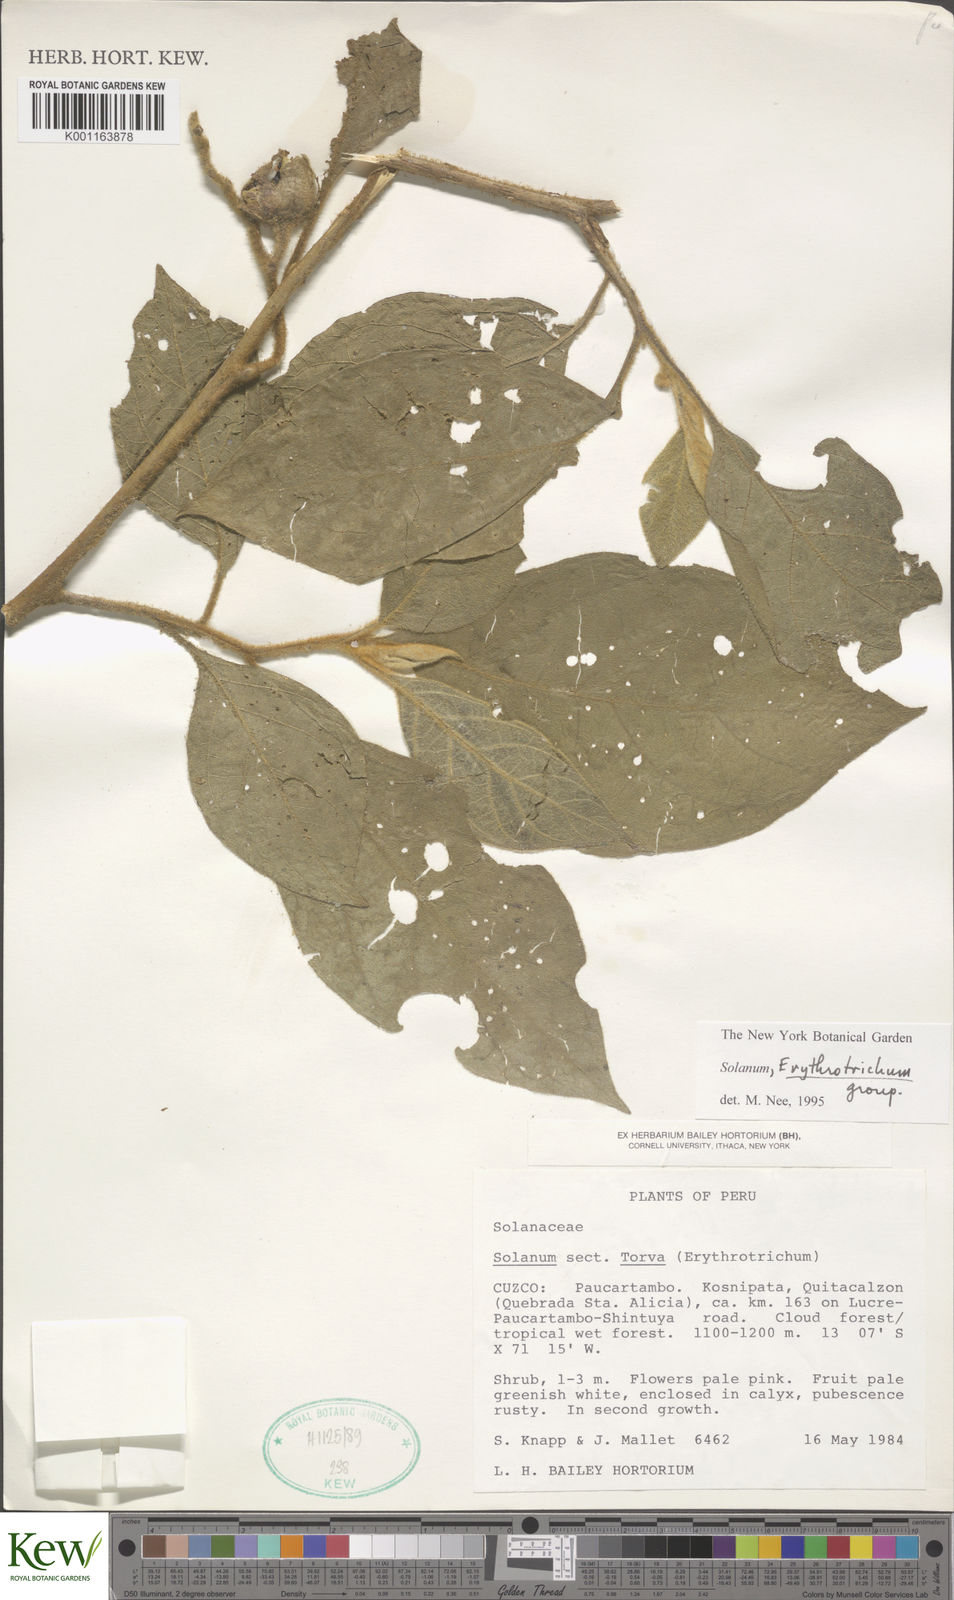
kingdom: Plantae
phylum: Tracheophyta
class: Magnoliopsida
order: Solanales
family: Solanaceae
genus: Solanum
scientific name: Solanum erythrotrichum
